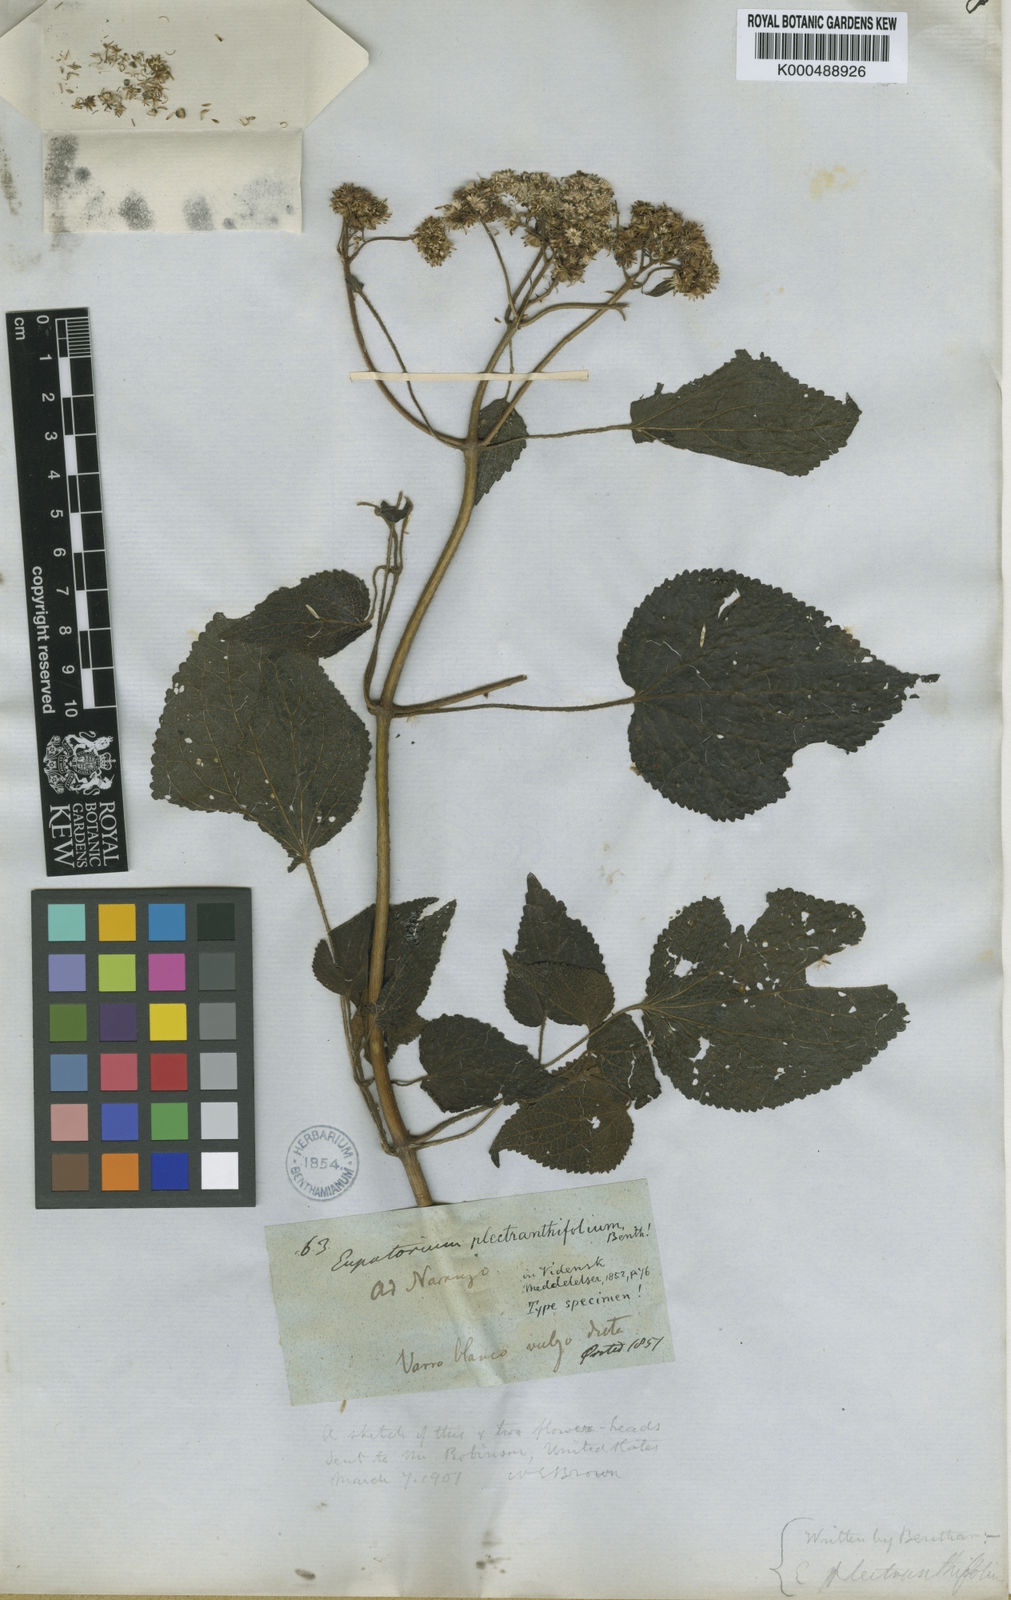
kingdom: Plantae
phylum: Tracheophyta
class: Magnoliopsida
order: Asterales
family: Asteraceae
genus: Fleischmannia
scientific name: Fleischmannia plectranthifolia
